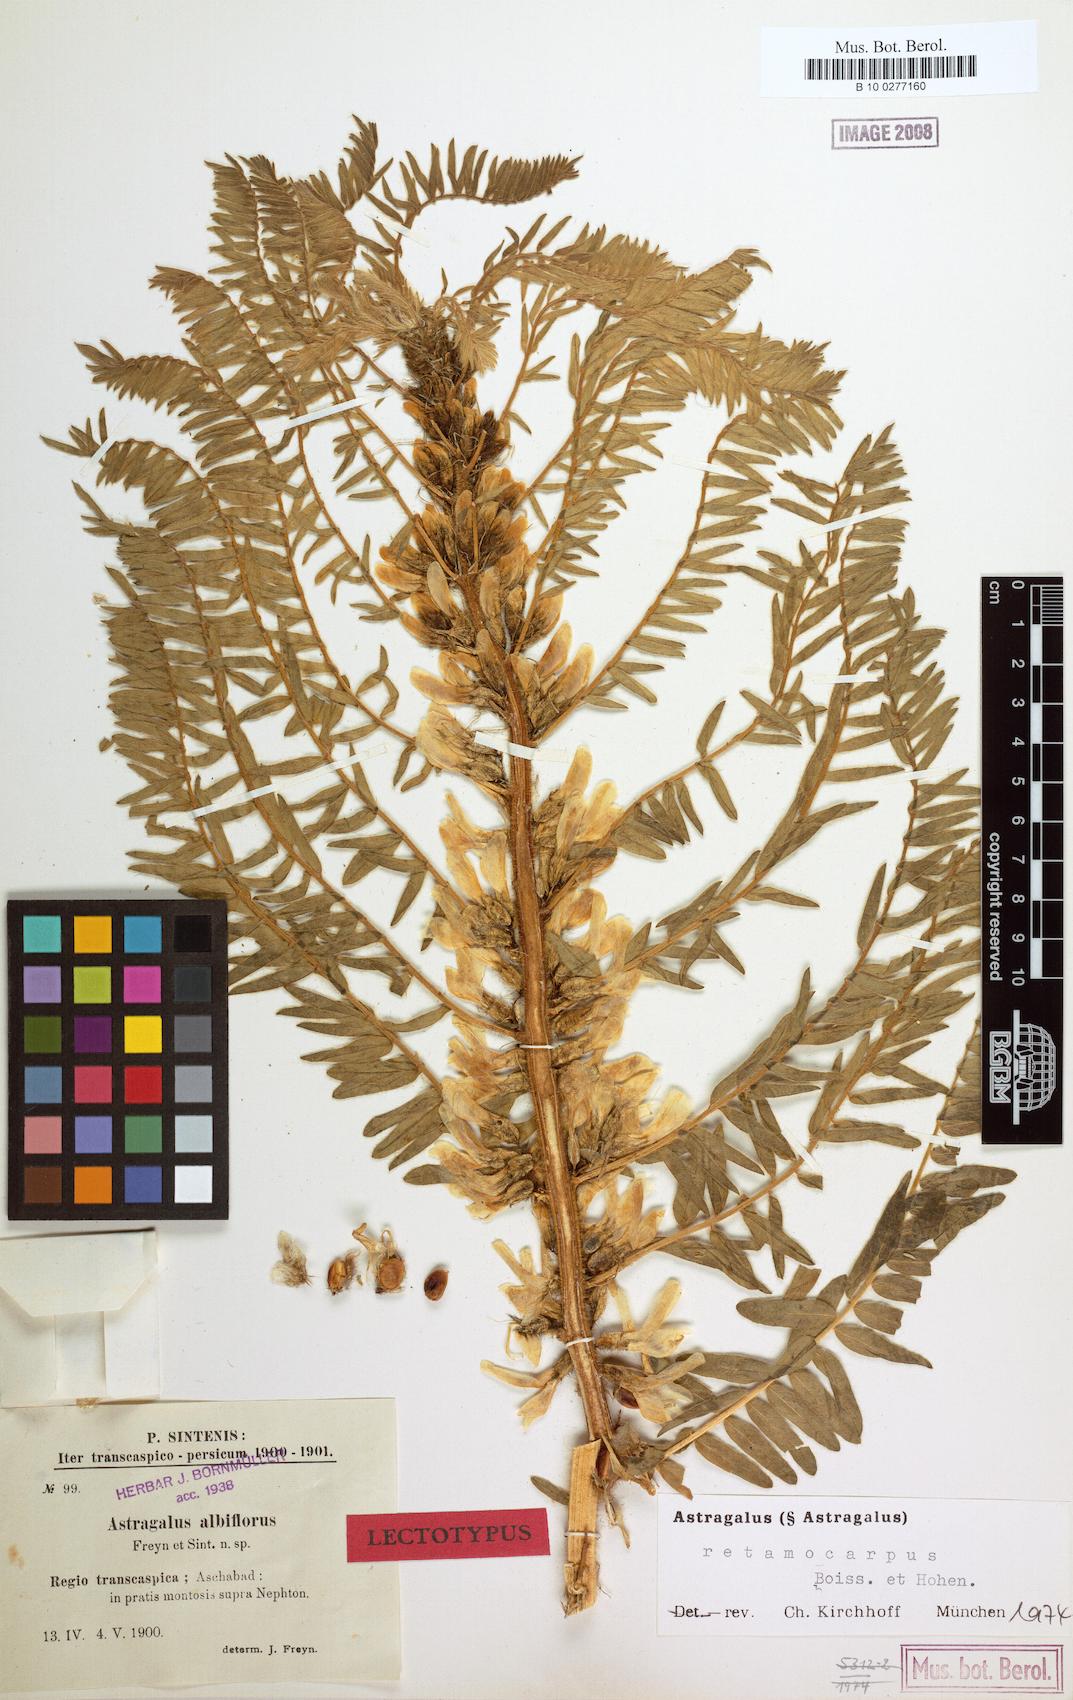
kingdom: Plantae
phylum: Tracheophyta
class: Magnoliopsida
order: Fabales
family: Fabaceae
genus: Astragalus
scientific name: Astragalus retamocarpus
